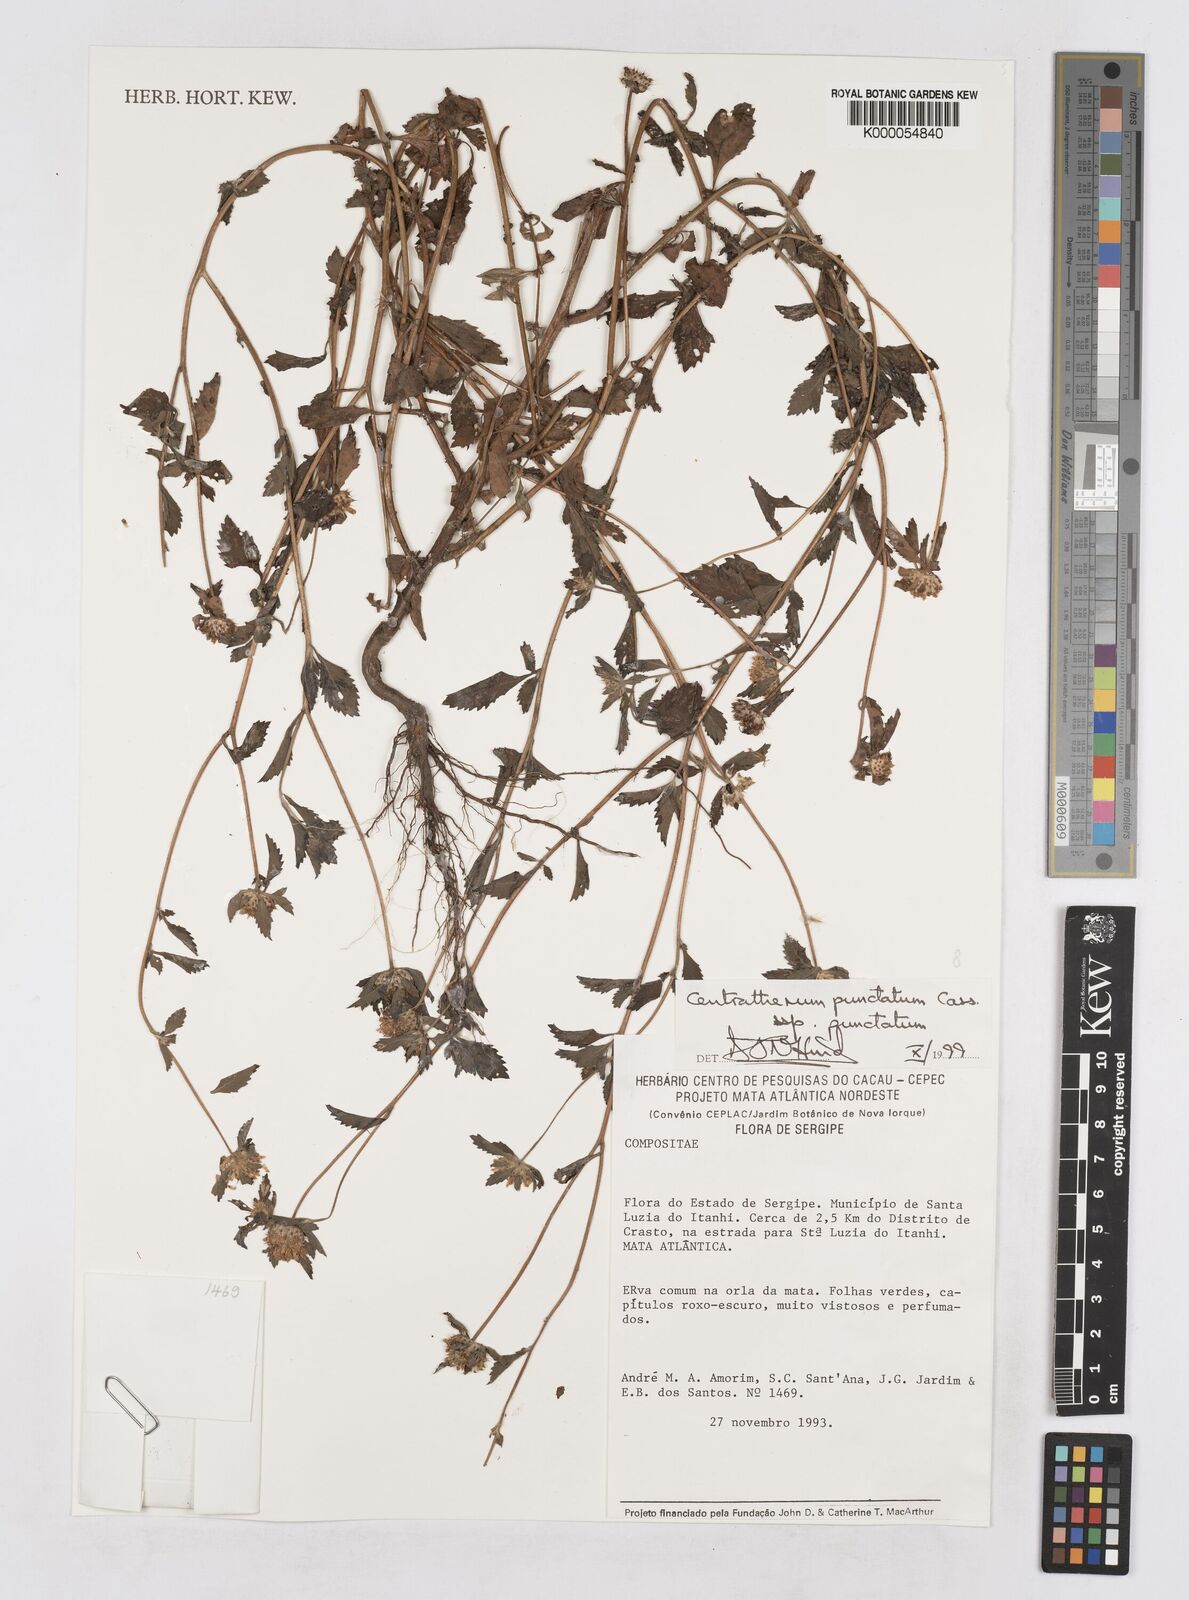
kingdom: Plantae
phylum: Tracheophyta
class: Magnoliopsida
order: Asterales
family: Asteraceae
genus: Centratherum
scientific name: Centratherum punctatum
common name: Larkdaisy
